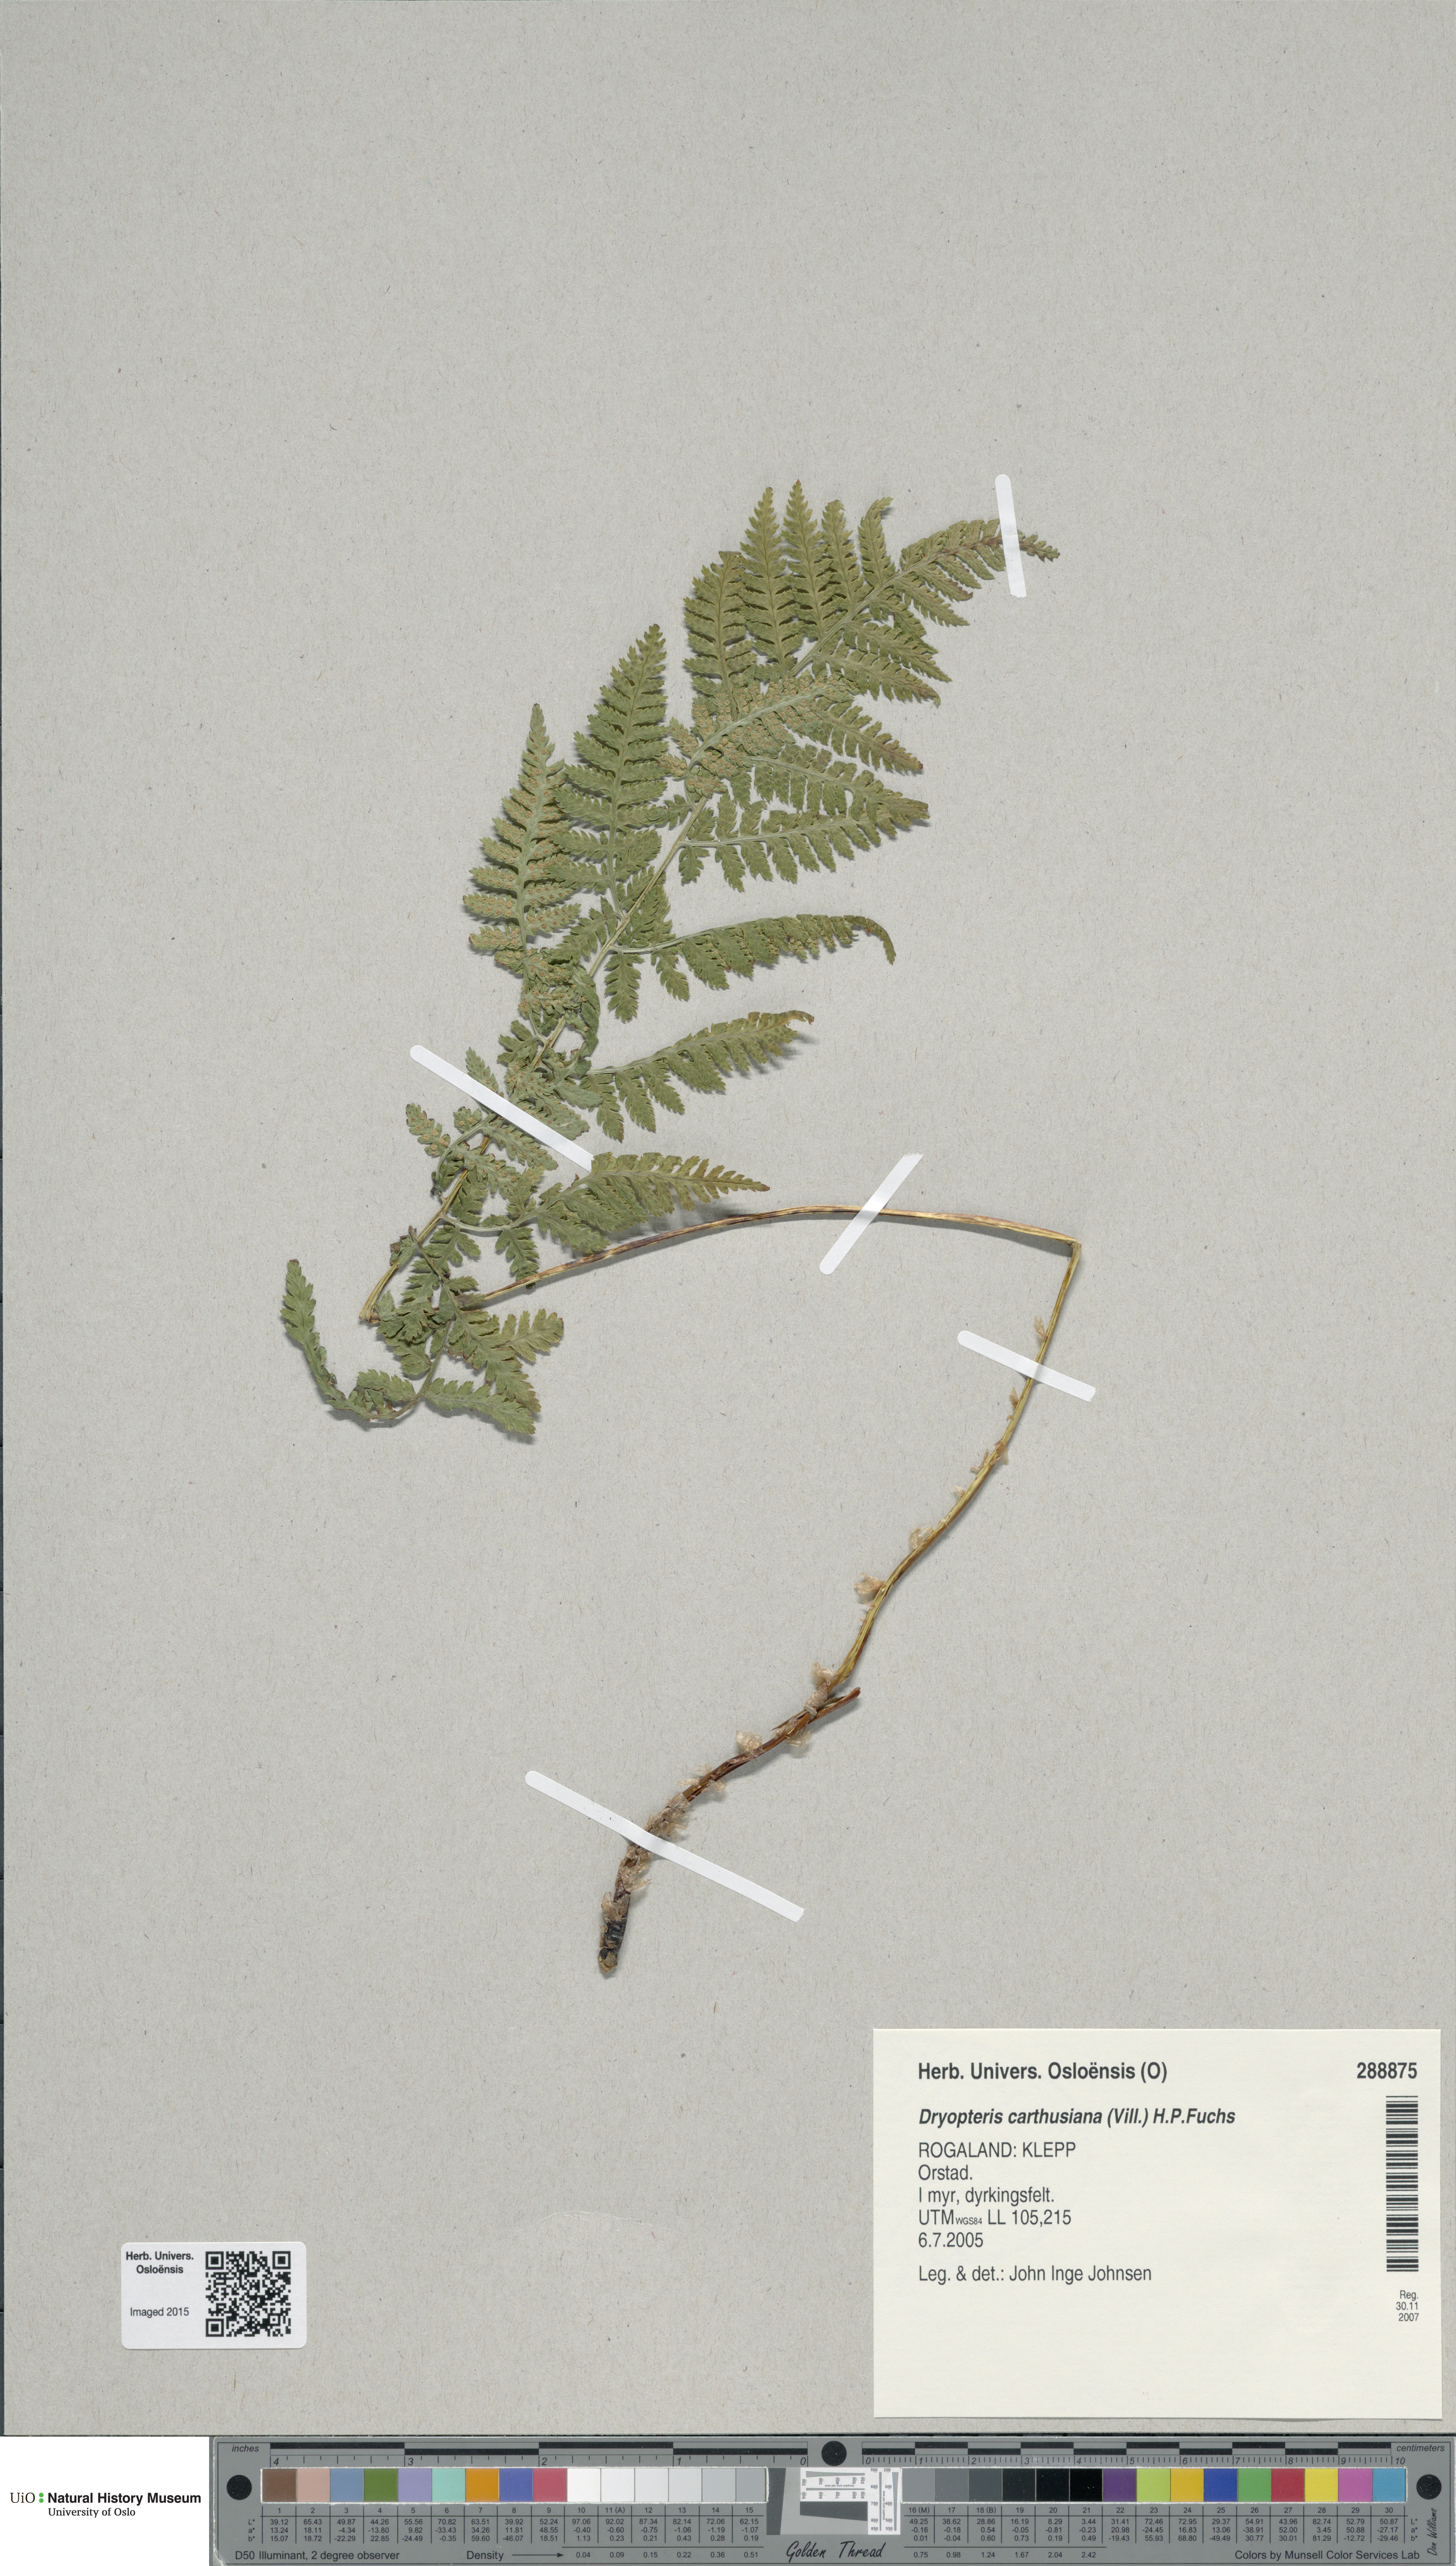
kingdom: Plantae
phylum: Tracheophyta
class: Polypodiopsida
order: Polypodiales
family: Dryopteridaceae
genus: Dryopteris
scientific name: Dryopteris carthusiana
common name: Narrow buckler-fern
